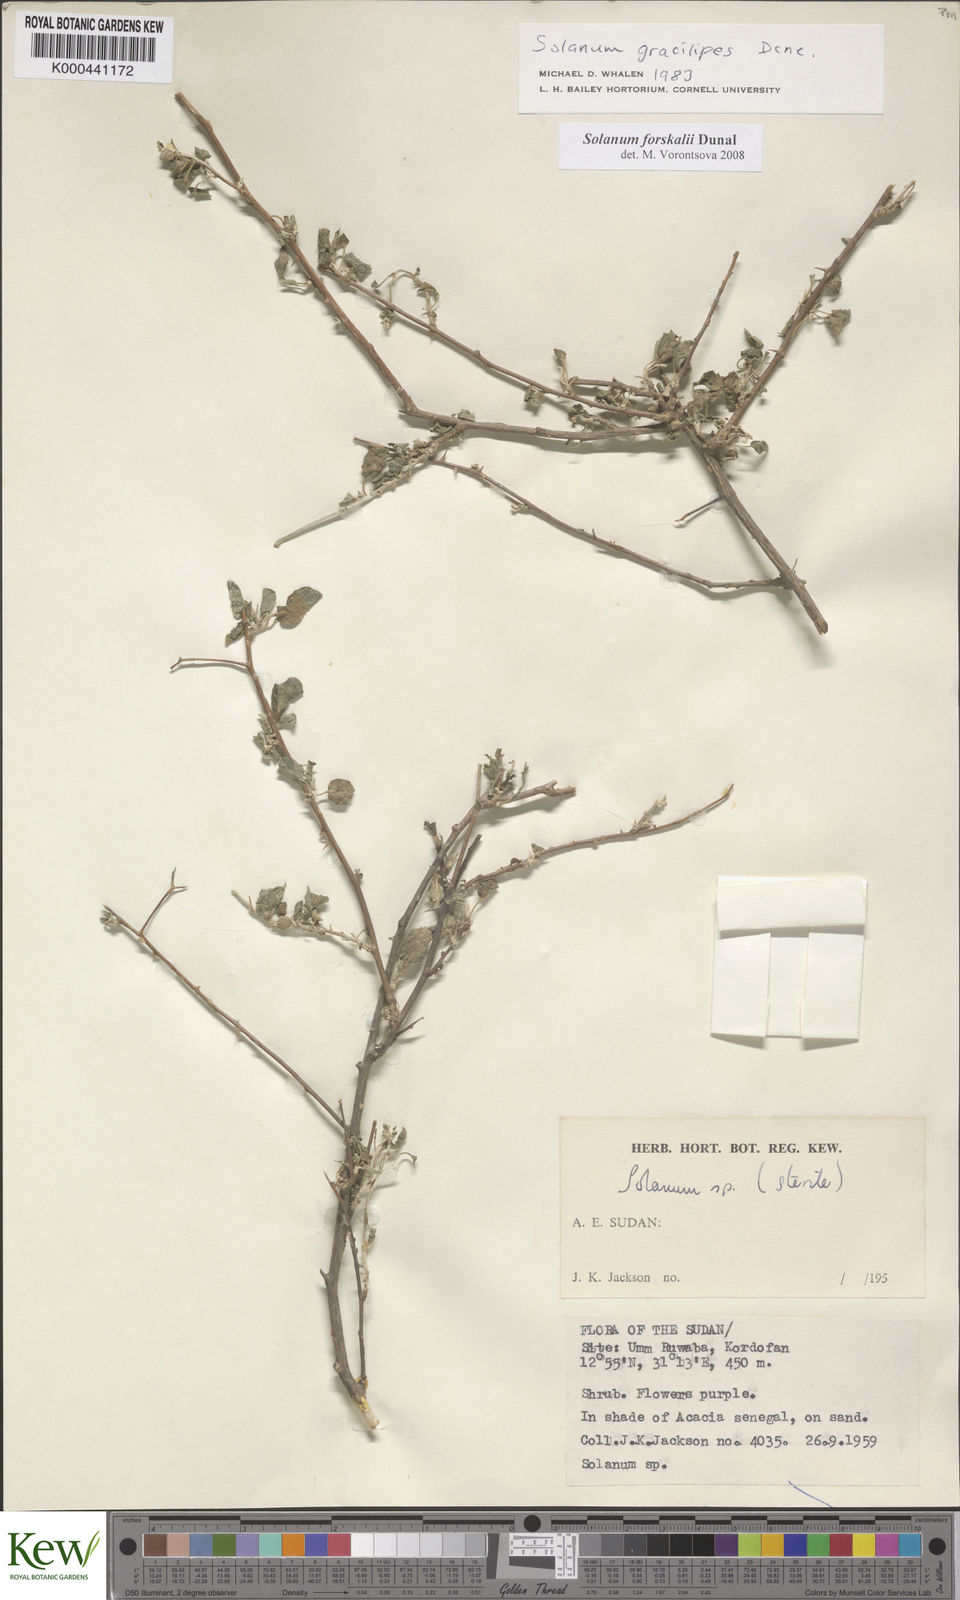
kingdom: Plantae
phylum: Tracheophyta
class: Magnoliopsida
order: Solanales
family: Solanaceae
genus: Solanum
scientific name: Solanum
